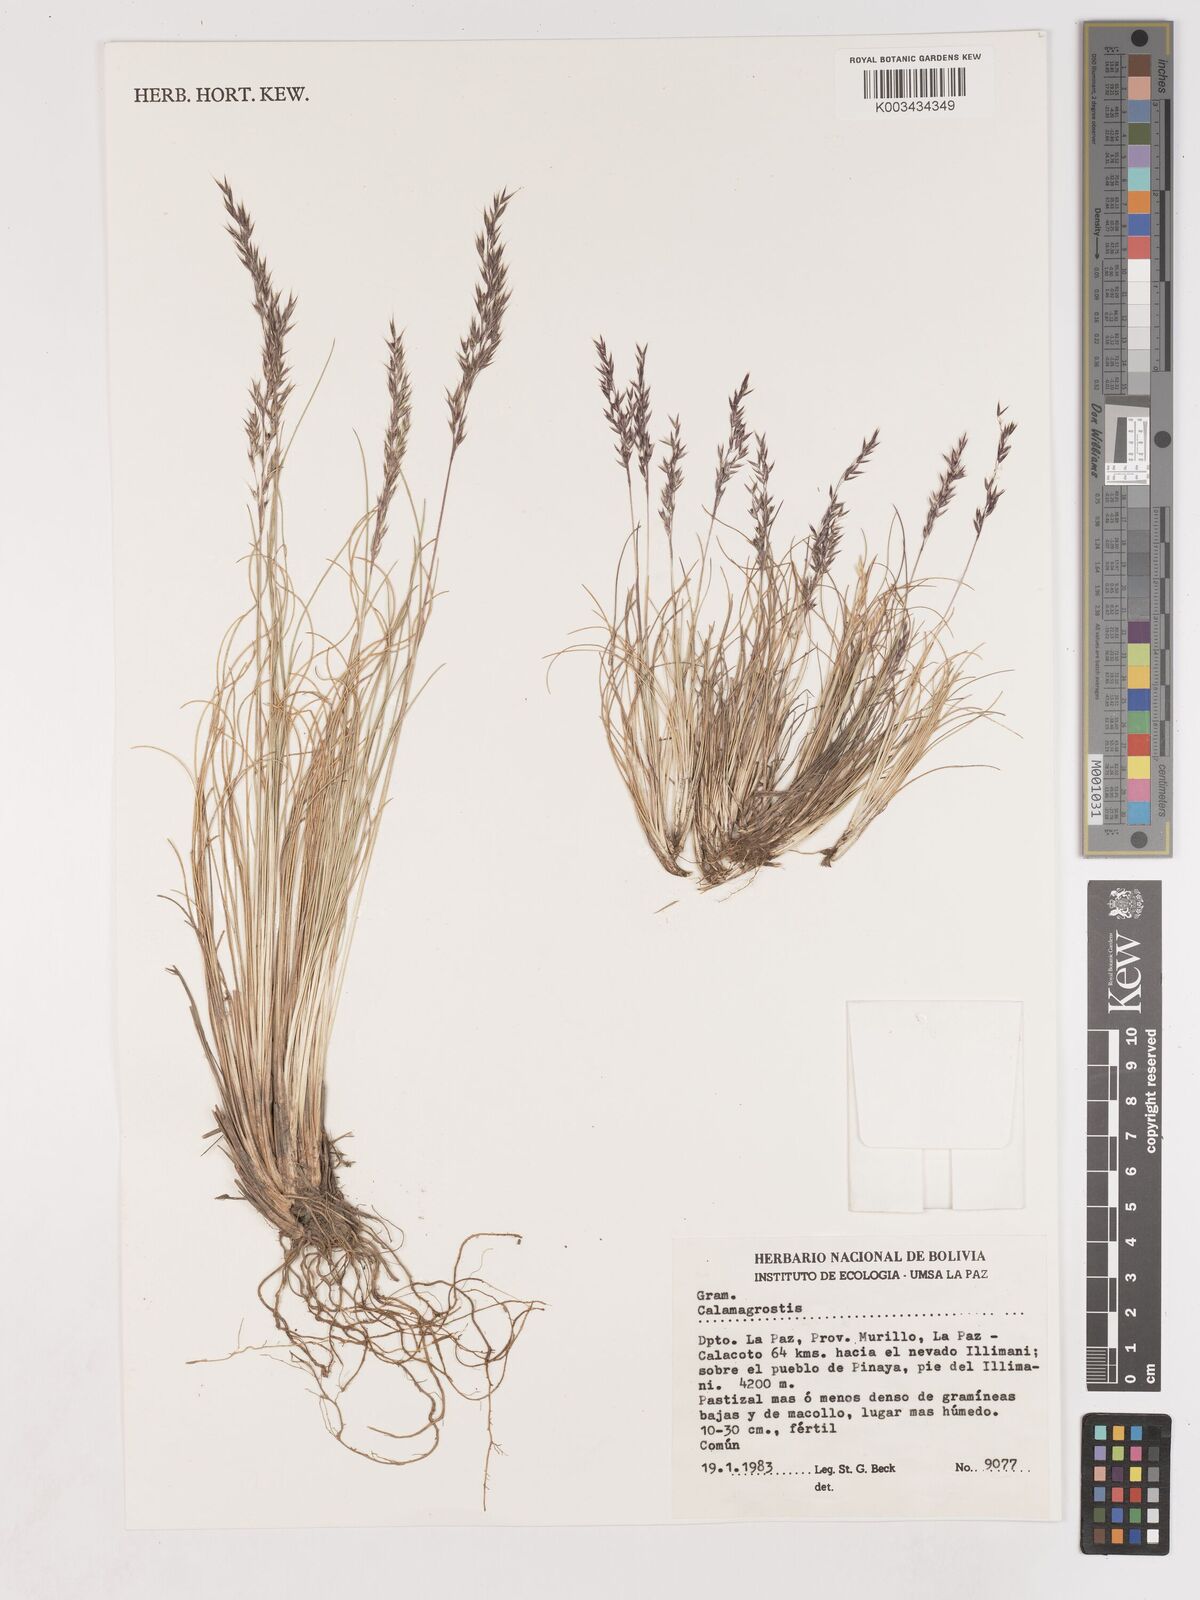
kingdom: Plantae
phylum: Tracheophyta
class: Liliopsida
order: Poales
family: Poaceae
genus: Cinnagrostis
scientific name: Cinnagrostis violacea
